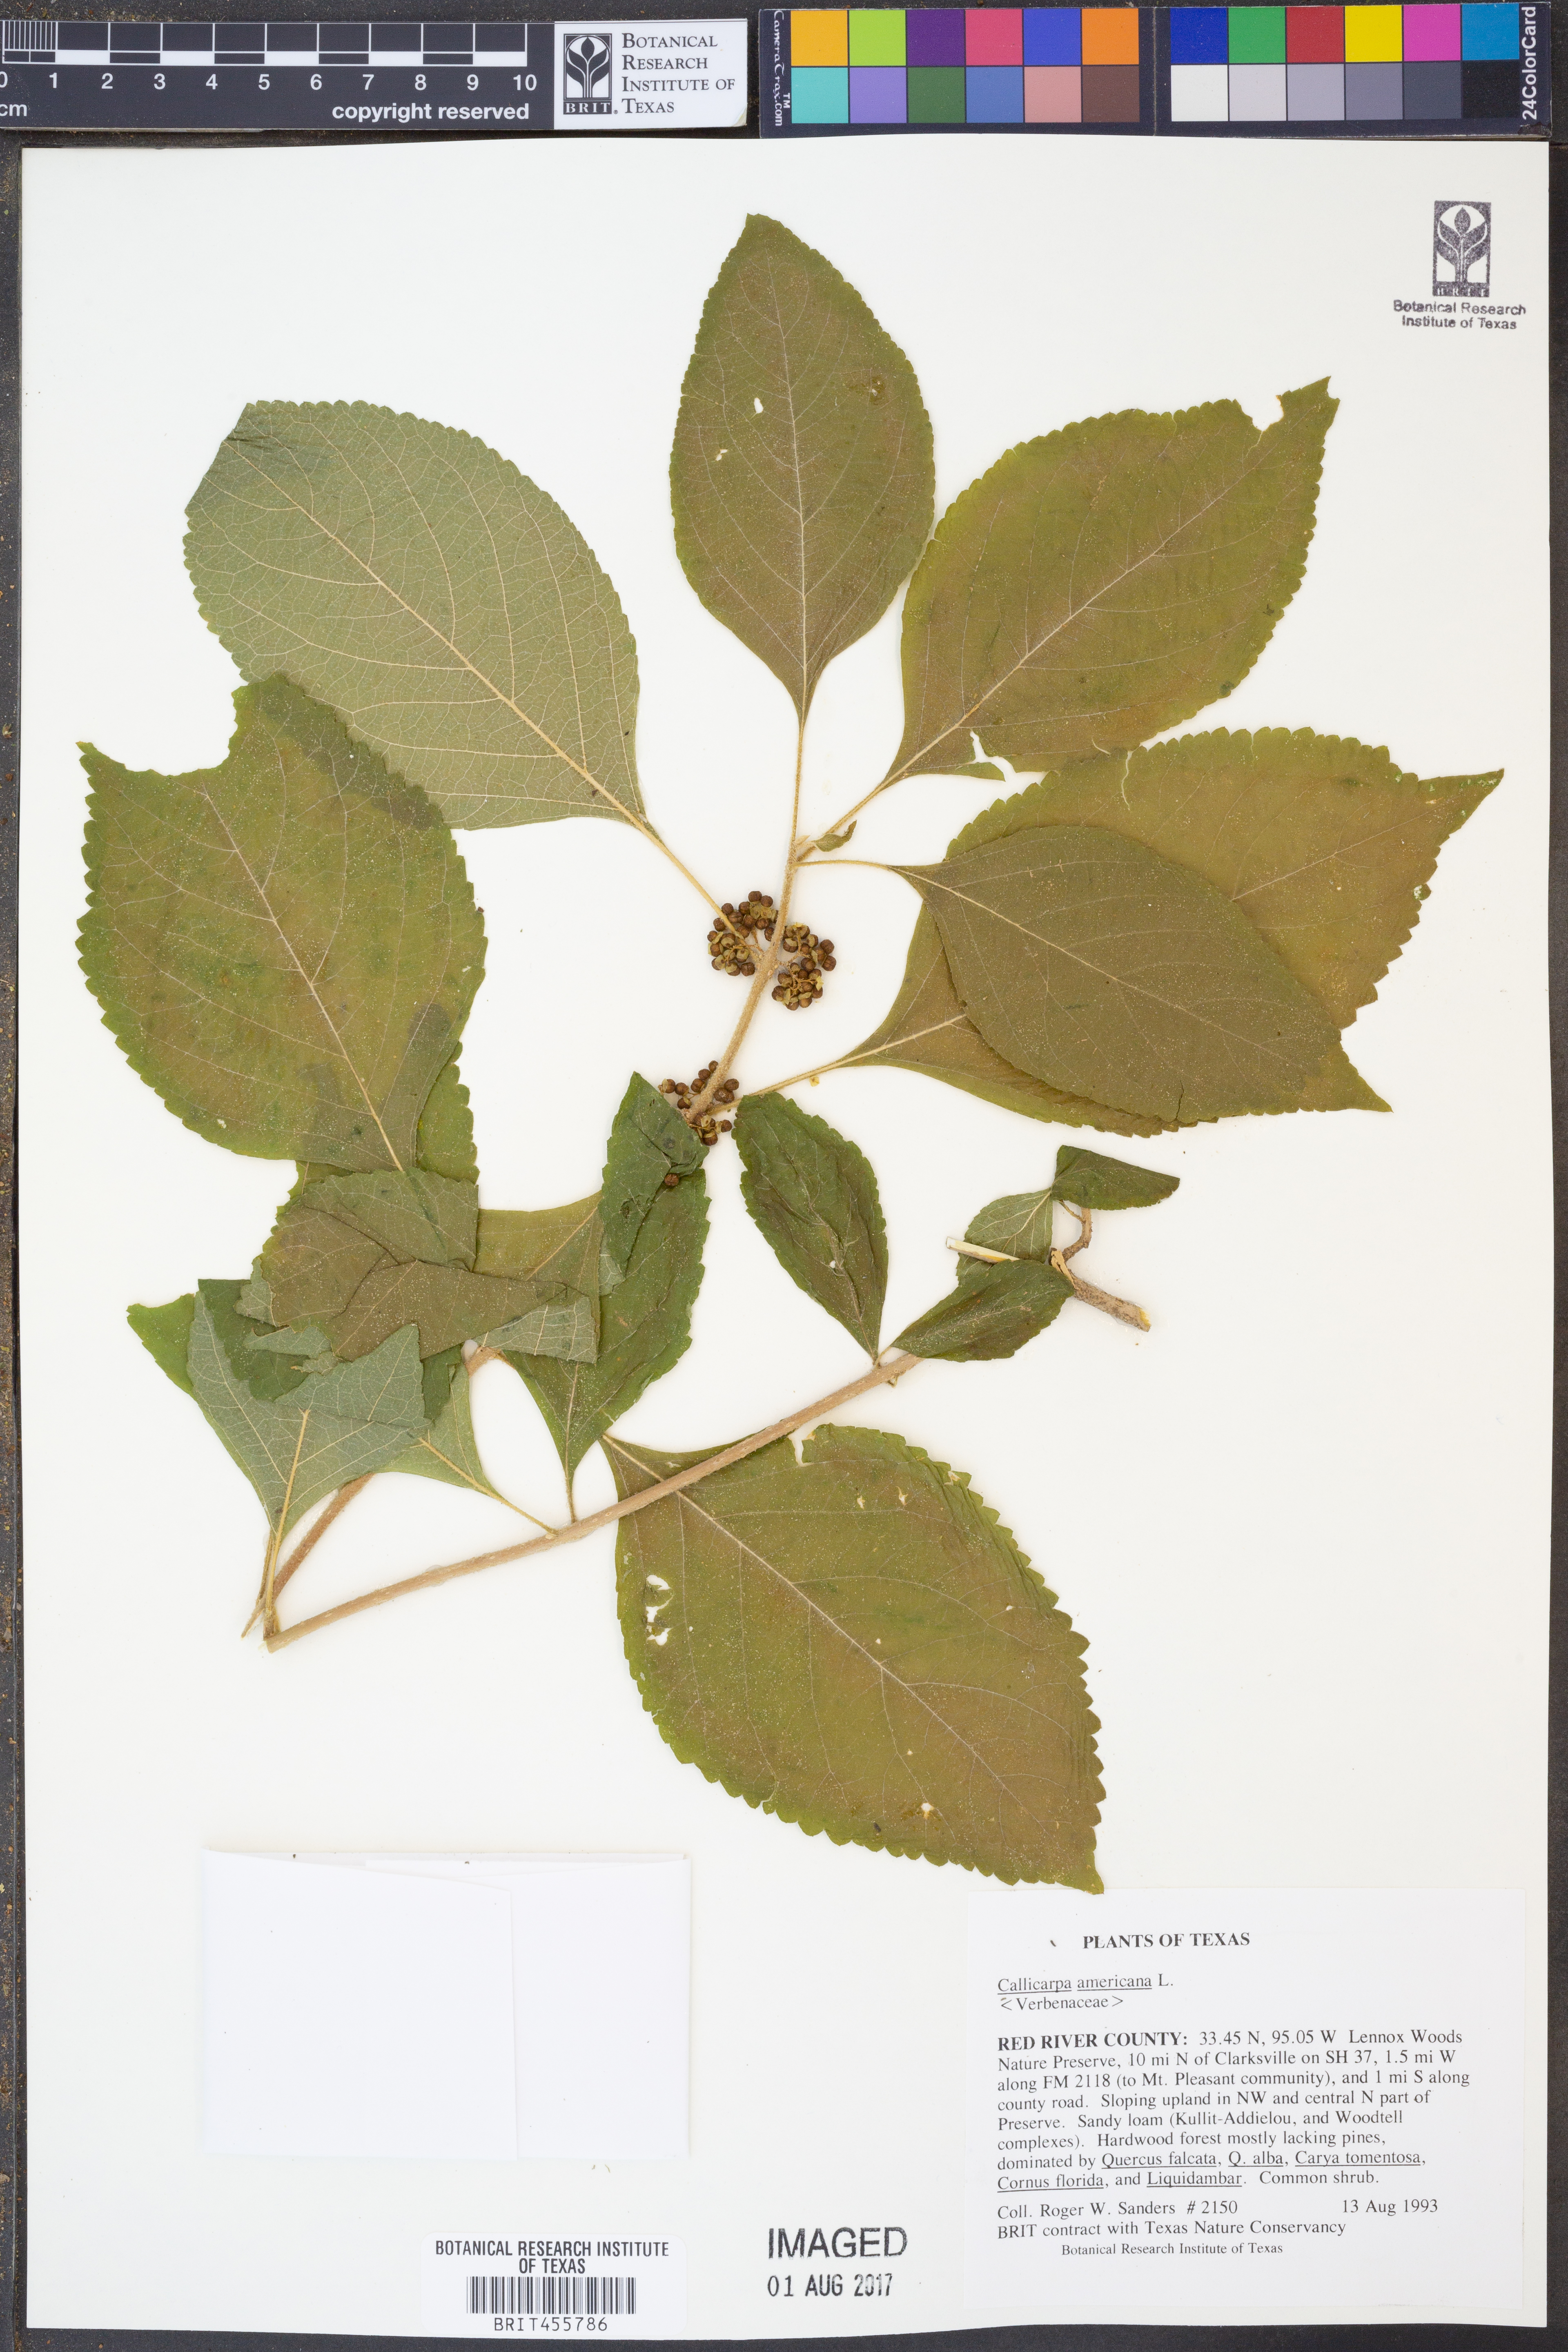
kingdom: Plantae
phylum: Tracheophyta
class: Magnoliopsida
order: Lamiales
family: Lamiaceae
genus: Callicarpa
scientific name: Callicarpa americana
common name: American beautyberry
